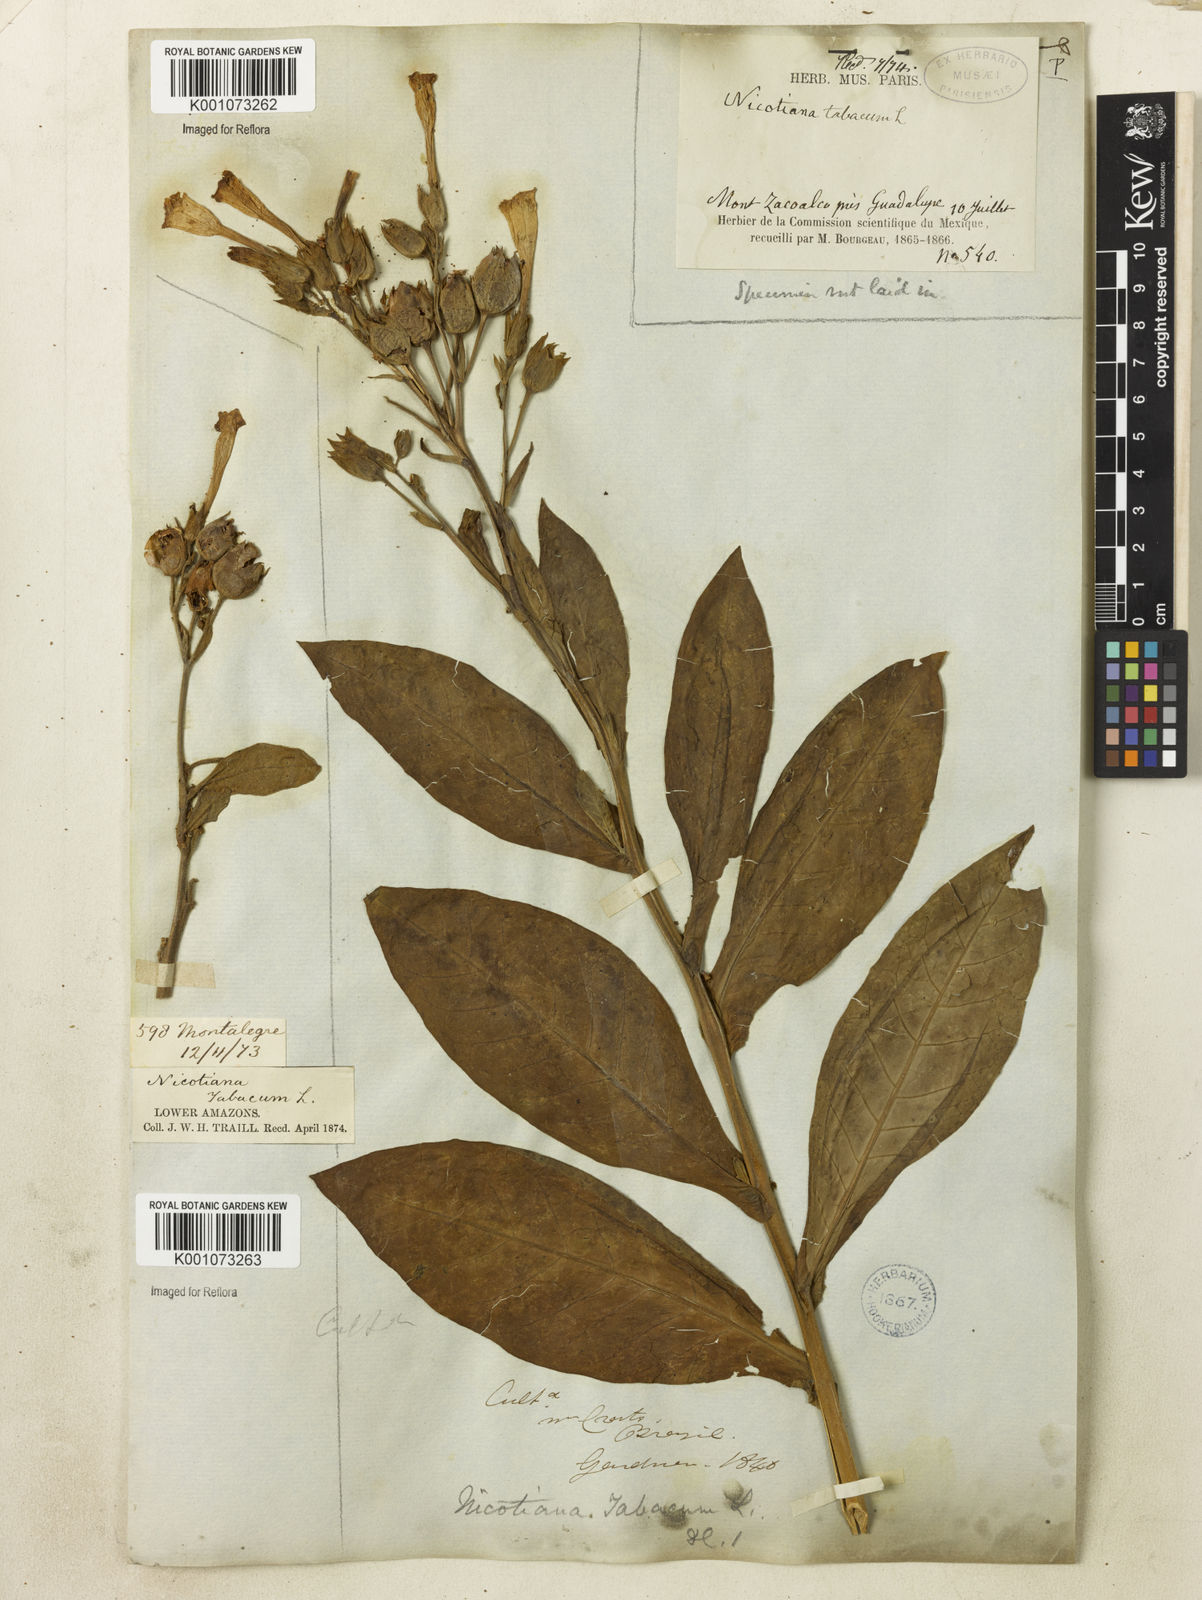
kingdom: Plantae
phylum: Tracheophyta
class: Magnoliopsida
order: Solanales
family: Solanaceae
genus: Nicotiana
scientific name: Nicotiana tabacum
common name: Tobacco
